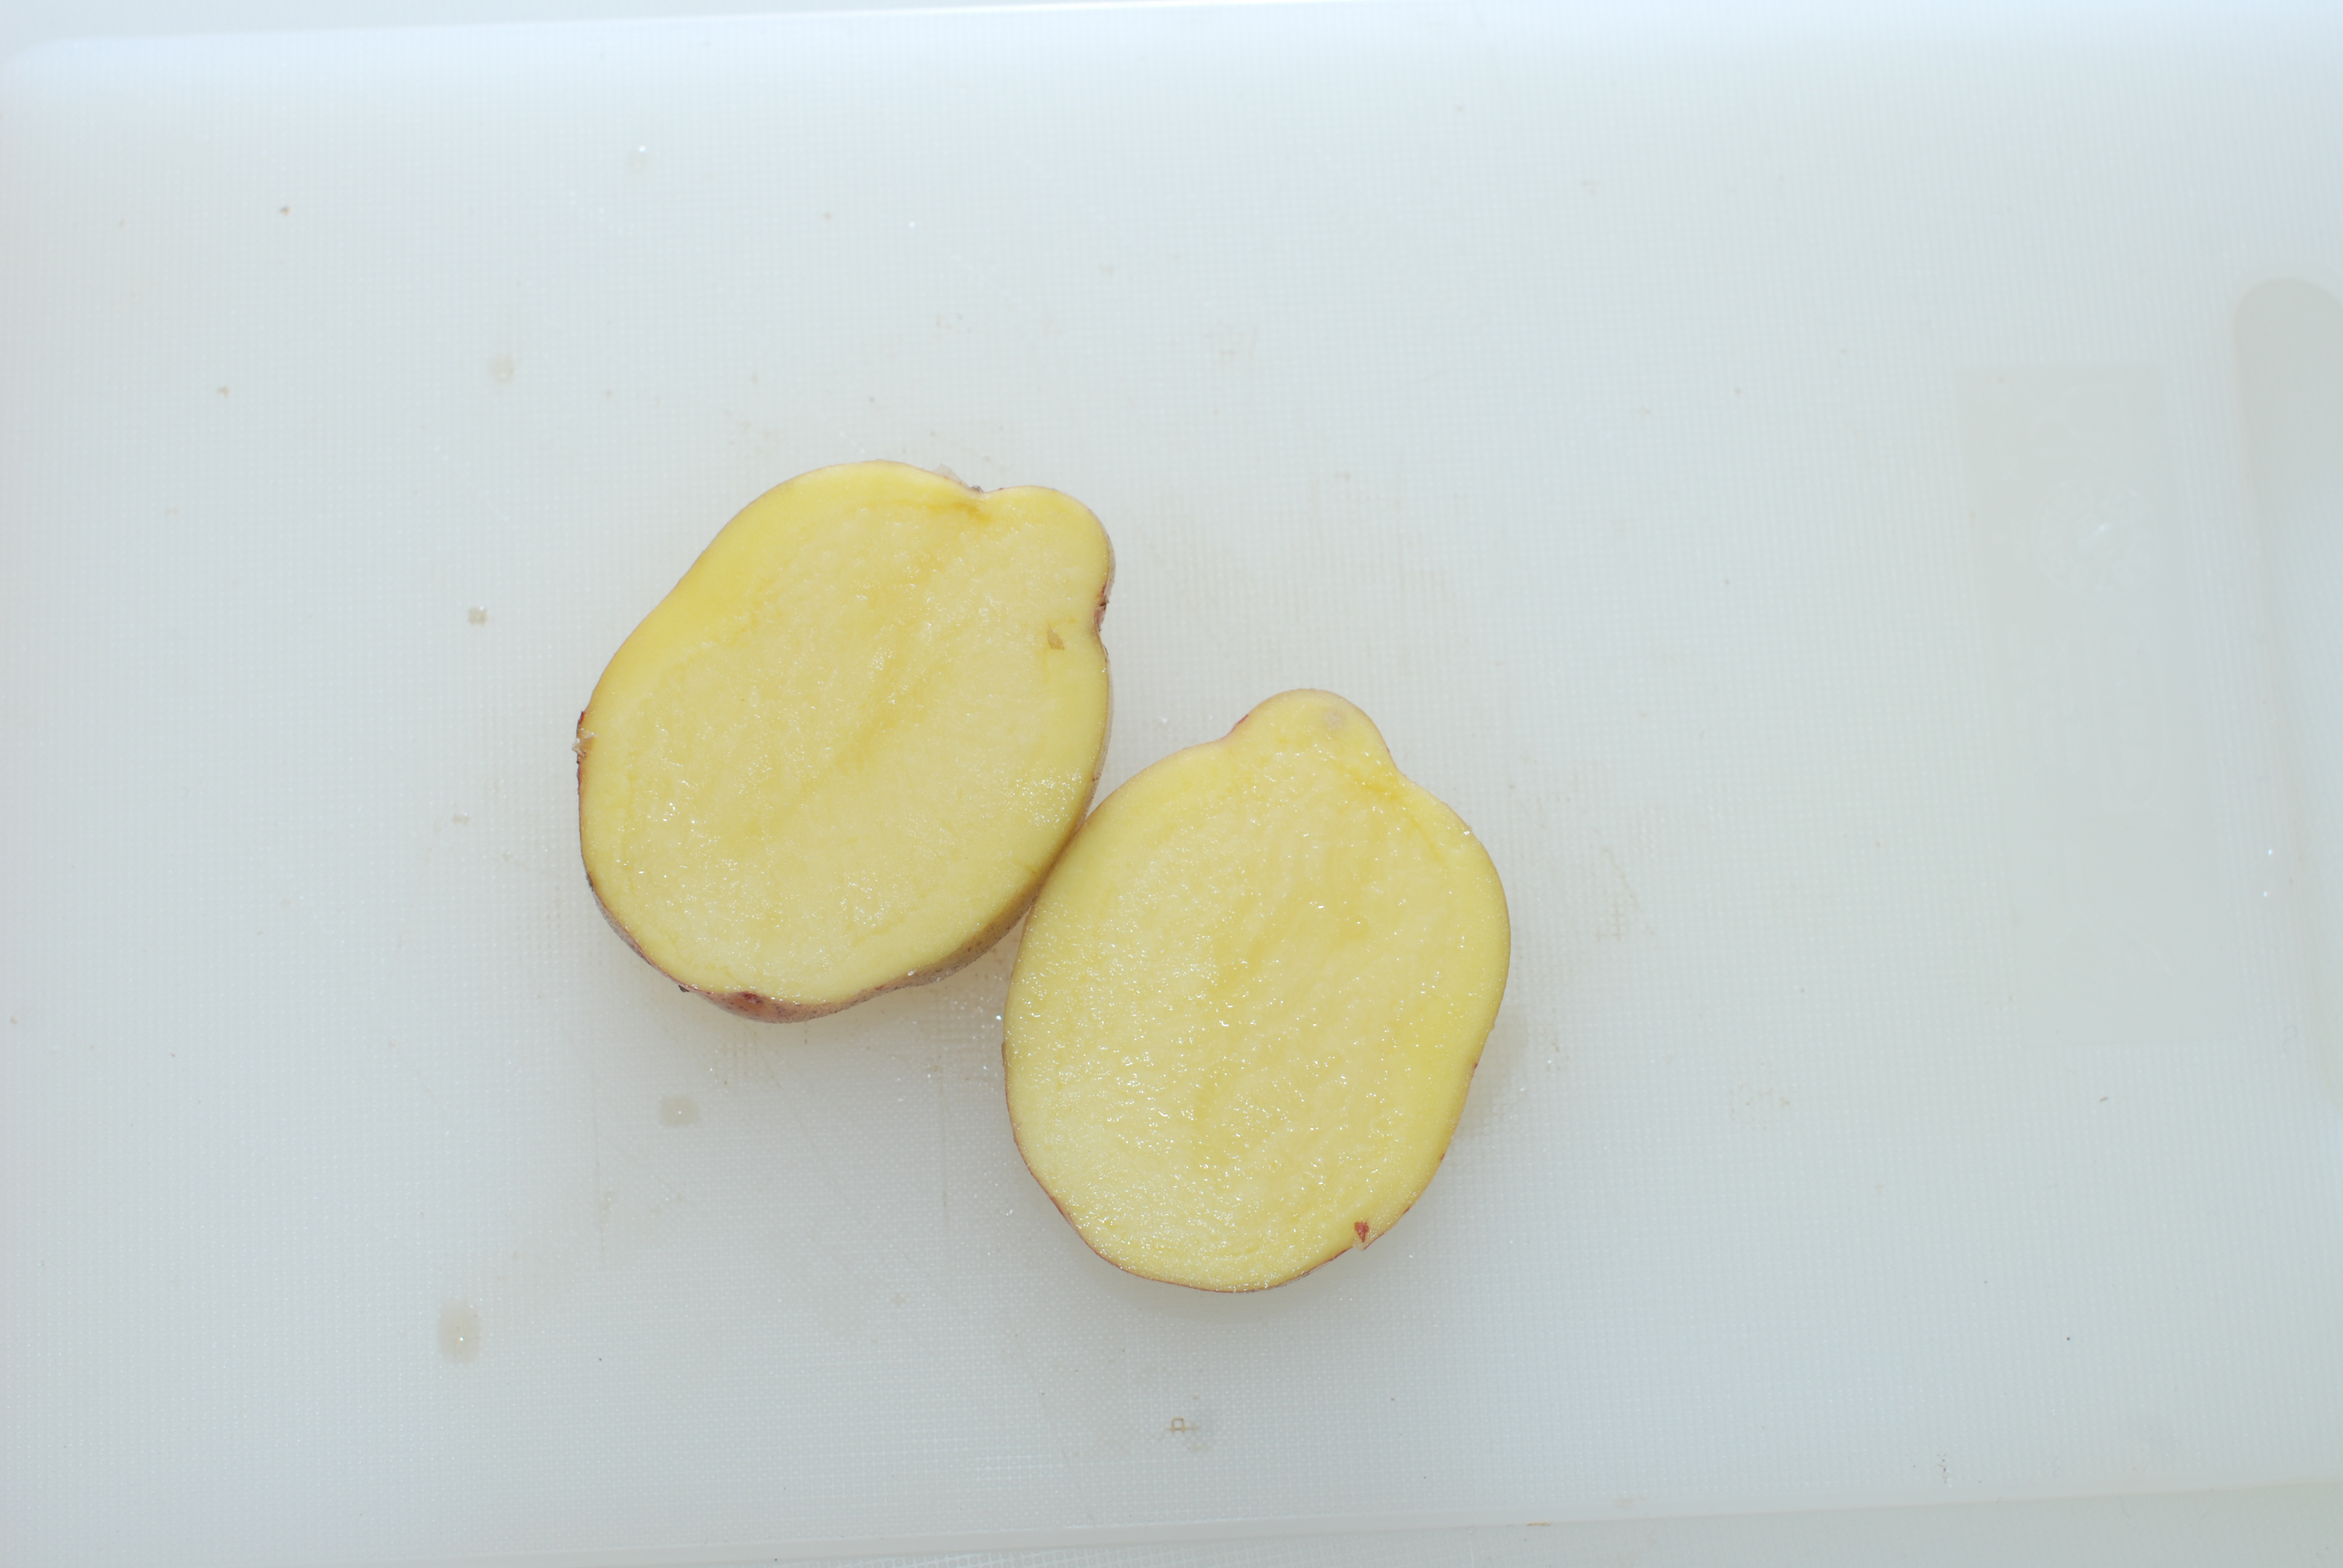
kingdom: Plantae
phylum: Tracheophyta
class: Magnoliopsida
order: Solanales
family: Solanaceae
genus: Solanum
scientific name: Solanum tuberosum
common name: Potato
